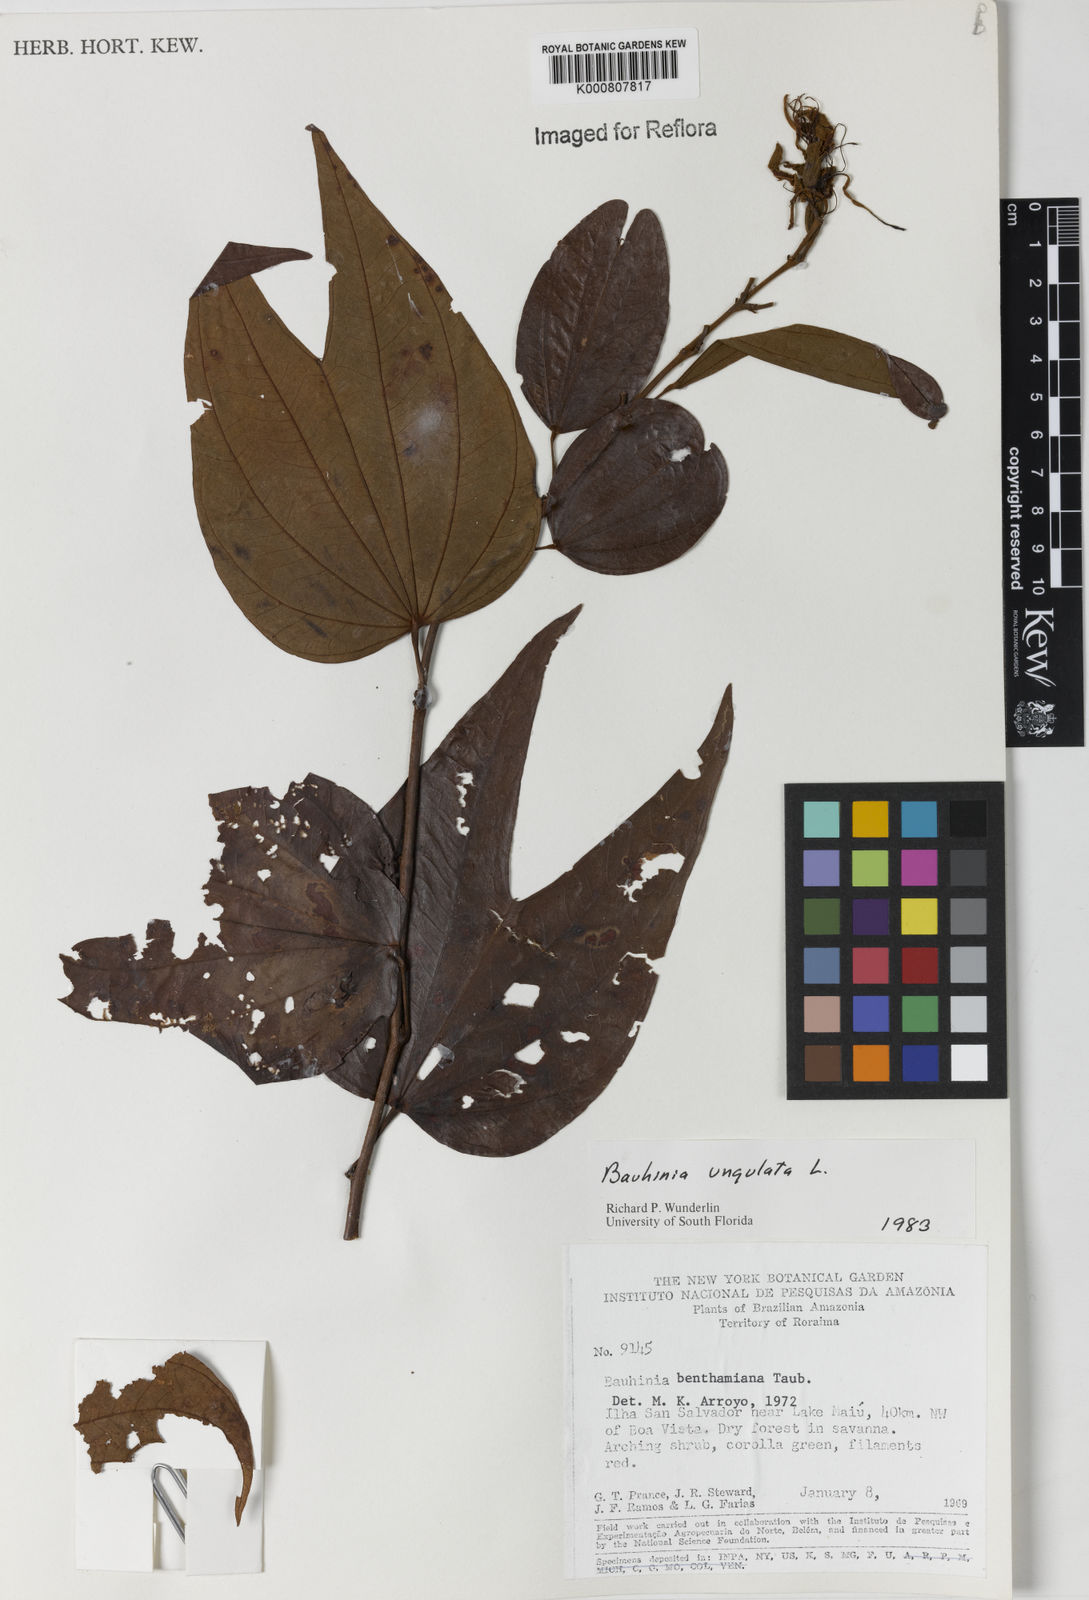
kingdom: Plantae
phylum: Tracheophyta
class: Magnoliopsida
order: Fabales
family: Fabaceae
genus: Bauhinia
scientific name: Bauhinia ungulata
